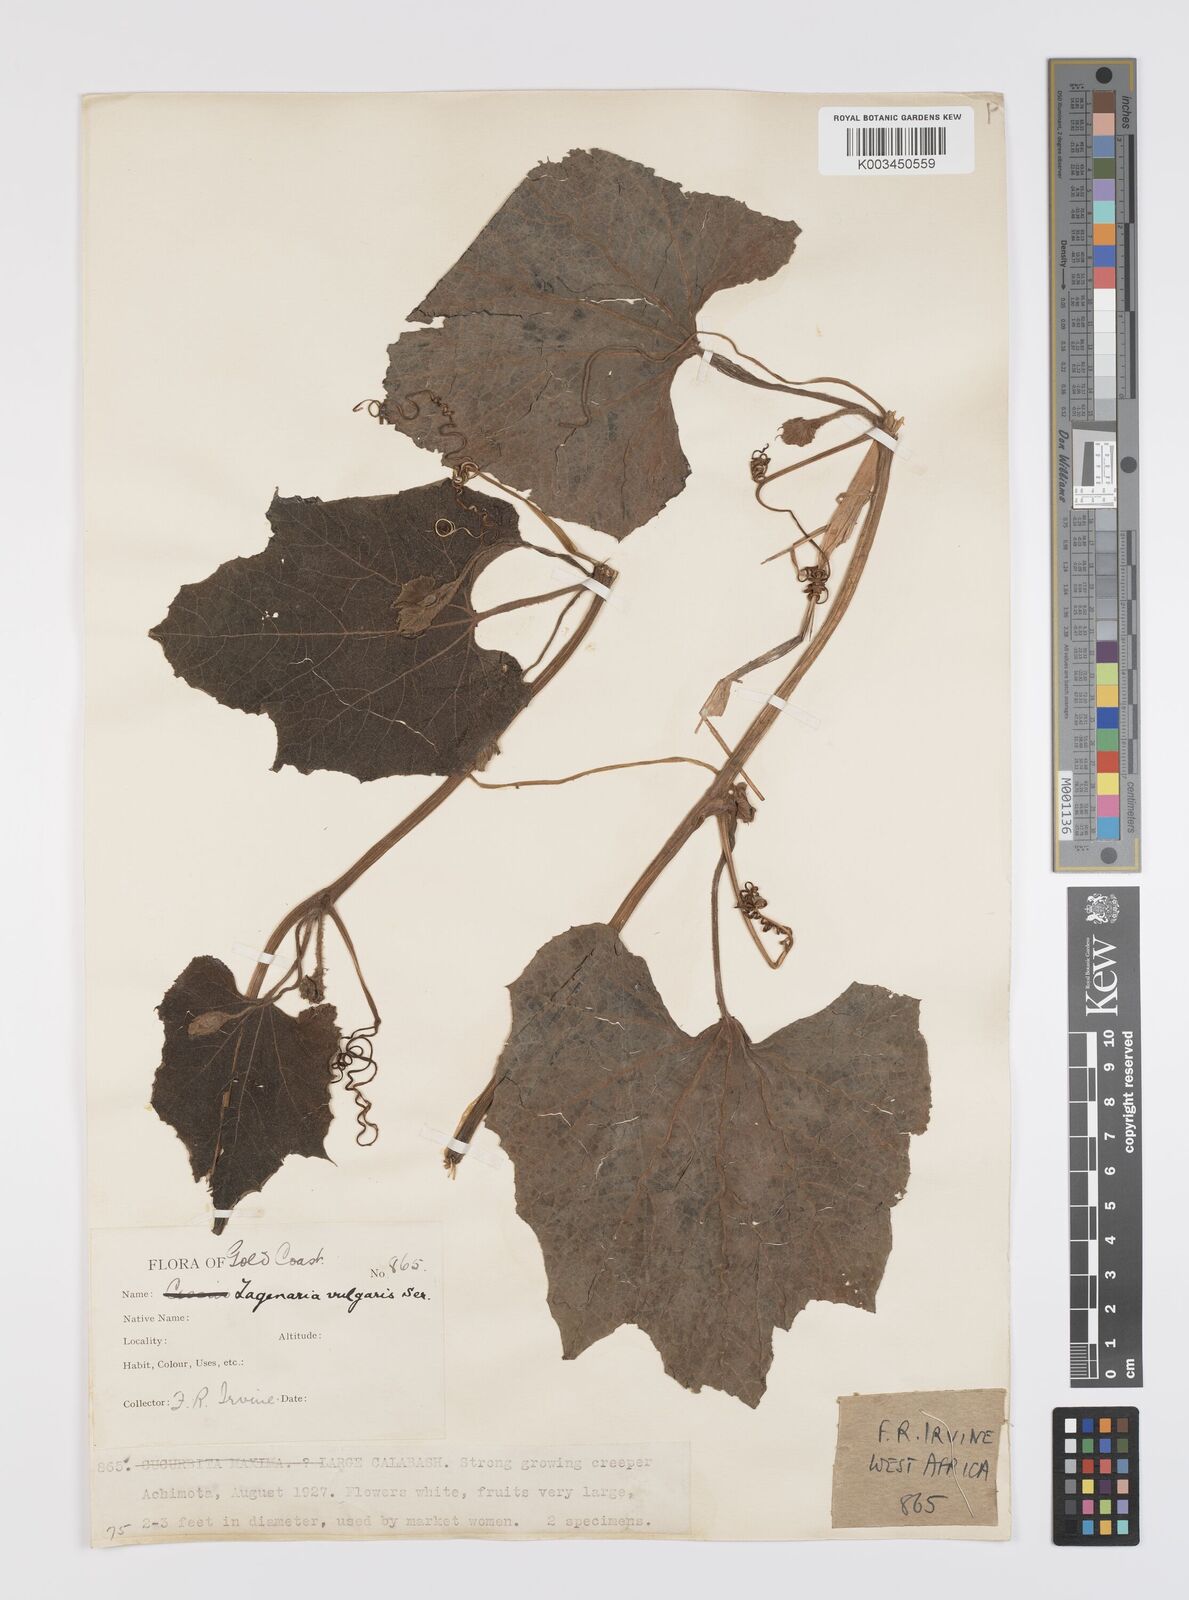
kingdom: Plantae
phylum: Tracheophyta
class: Magnoliopsida
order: Cucurbitales
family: Cucurbitaceae
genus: Lagenaria
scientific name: Lagenaria siceraria
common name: Bottle gourd
